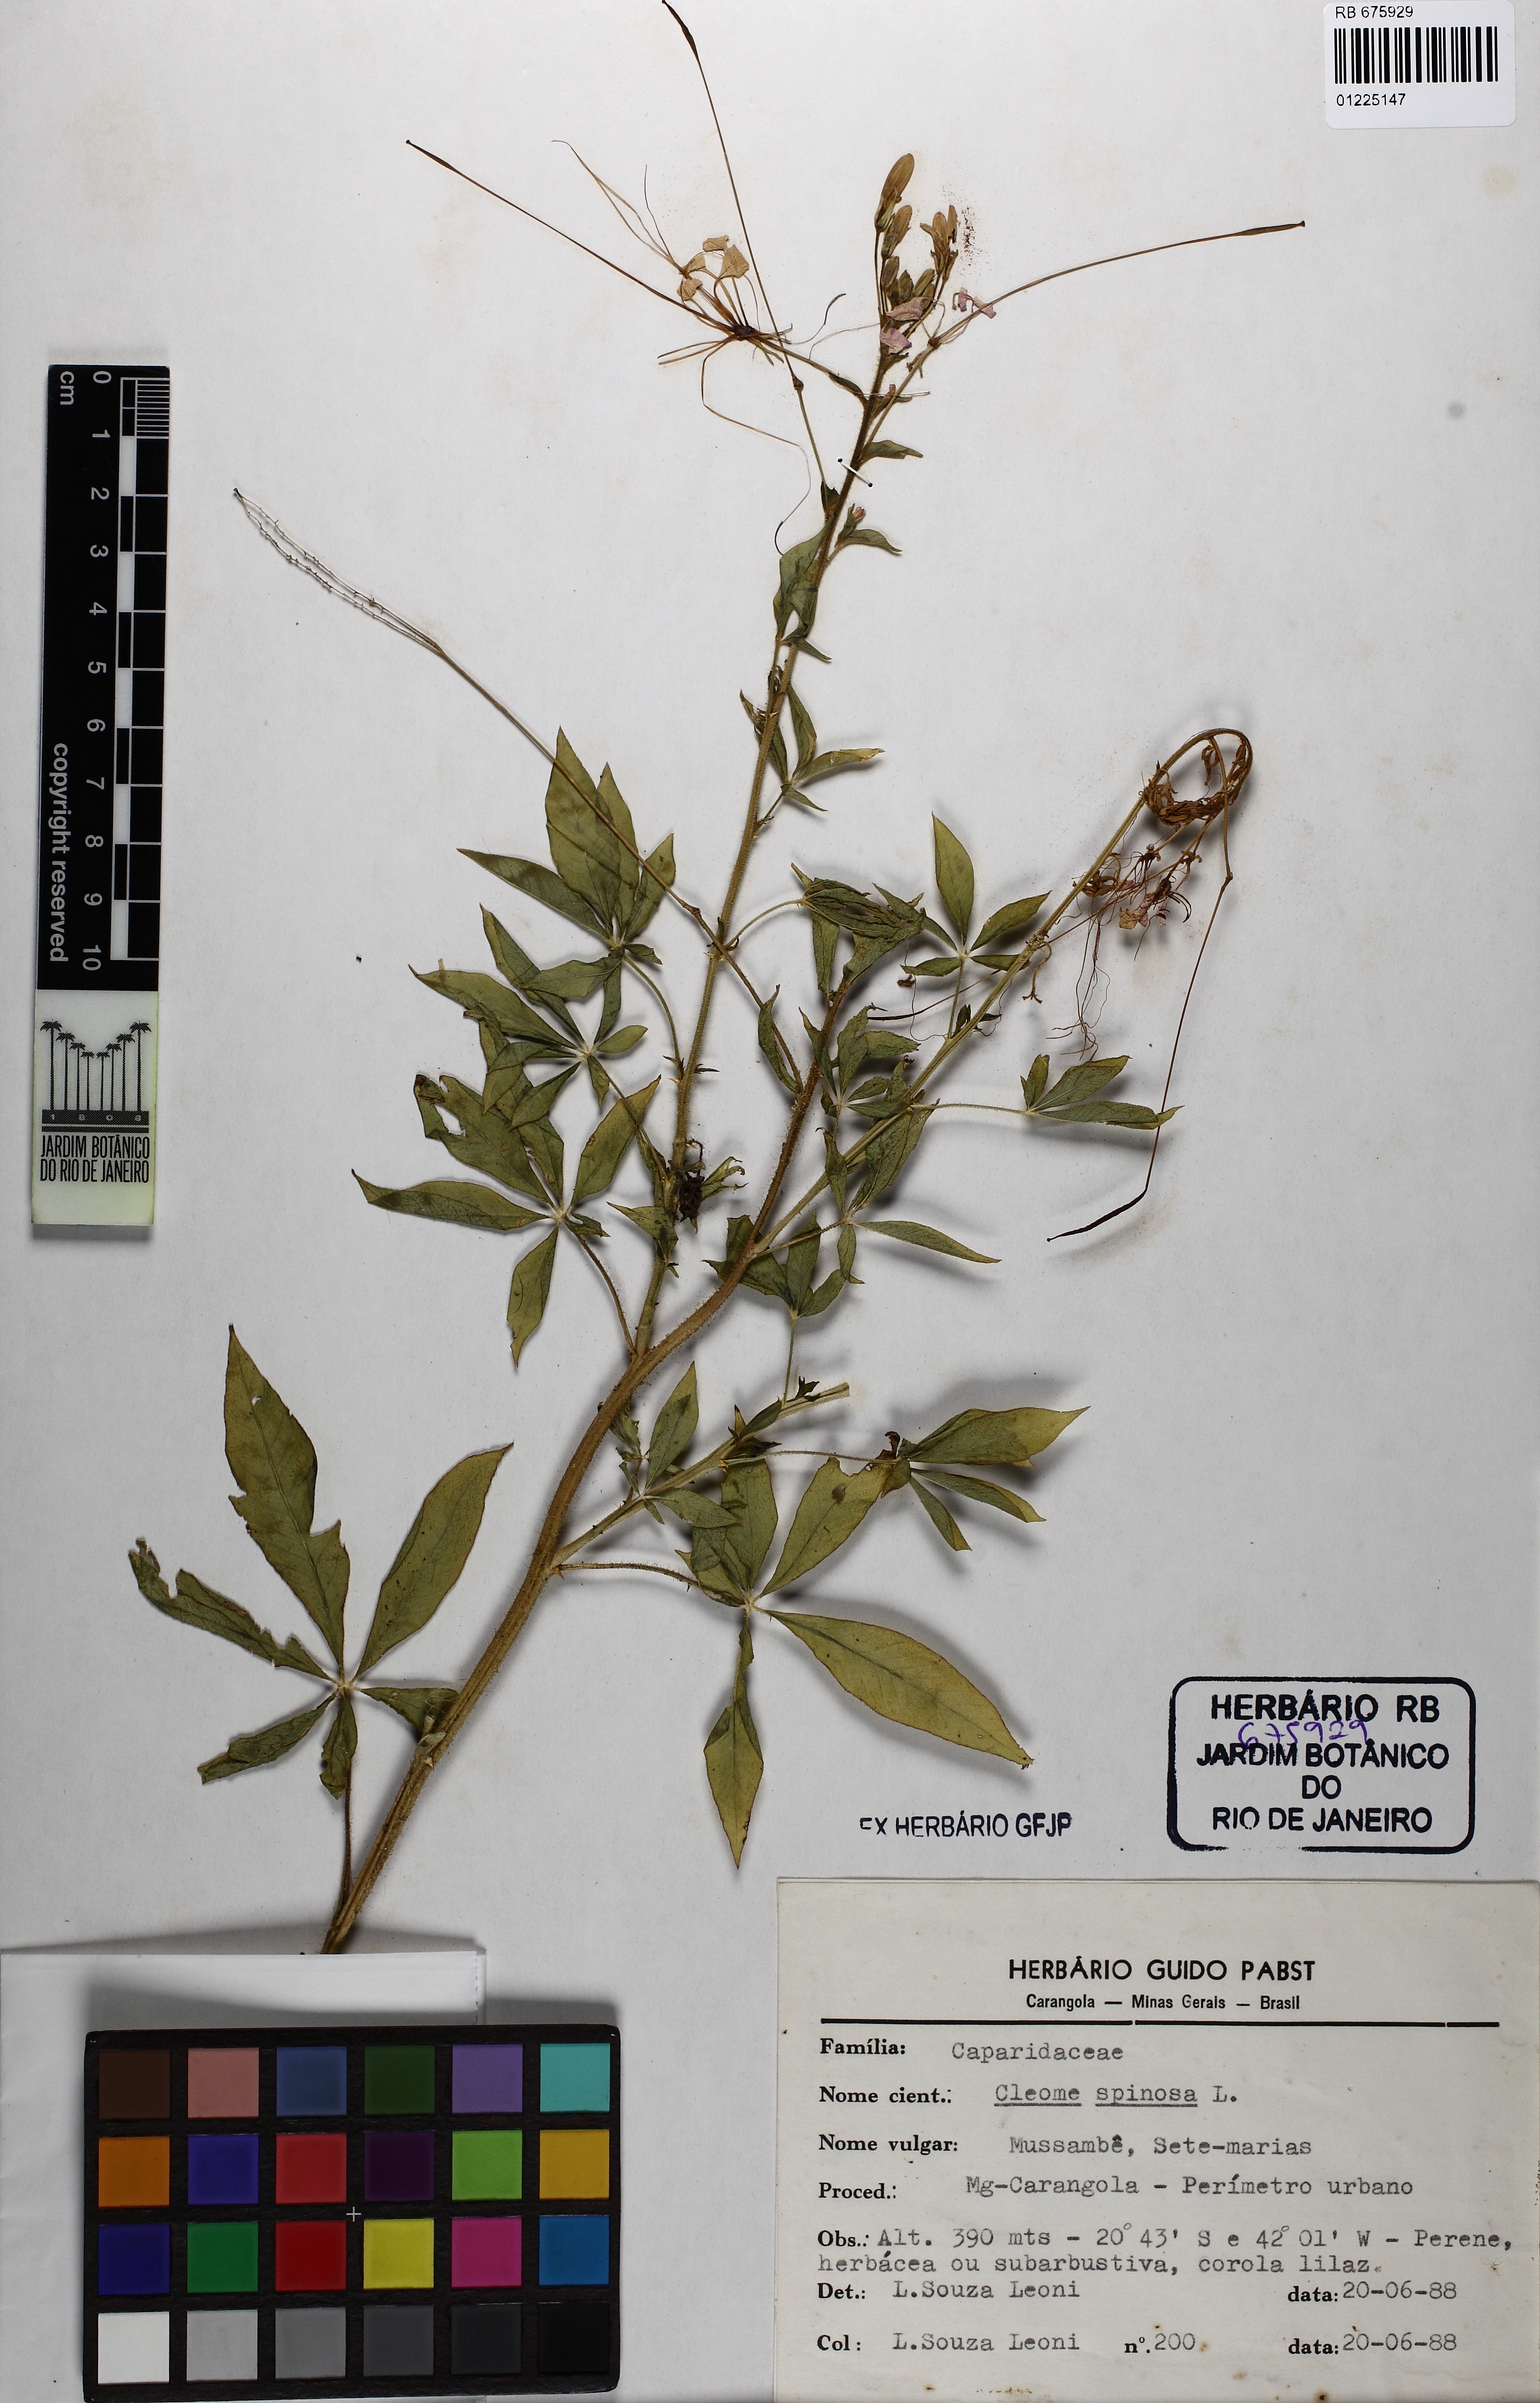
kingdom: Plantae
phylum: Tracheophyta
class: Magnoliopsida
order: Brassicales
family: Cleomaceae
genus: Tarenaya
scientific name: Tarenaya spinosa
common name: Spiny spiderflower
